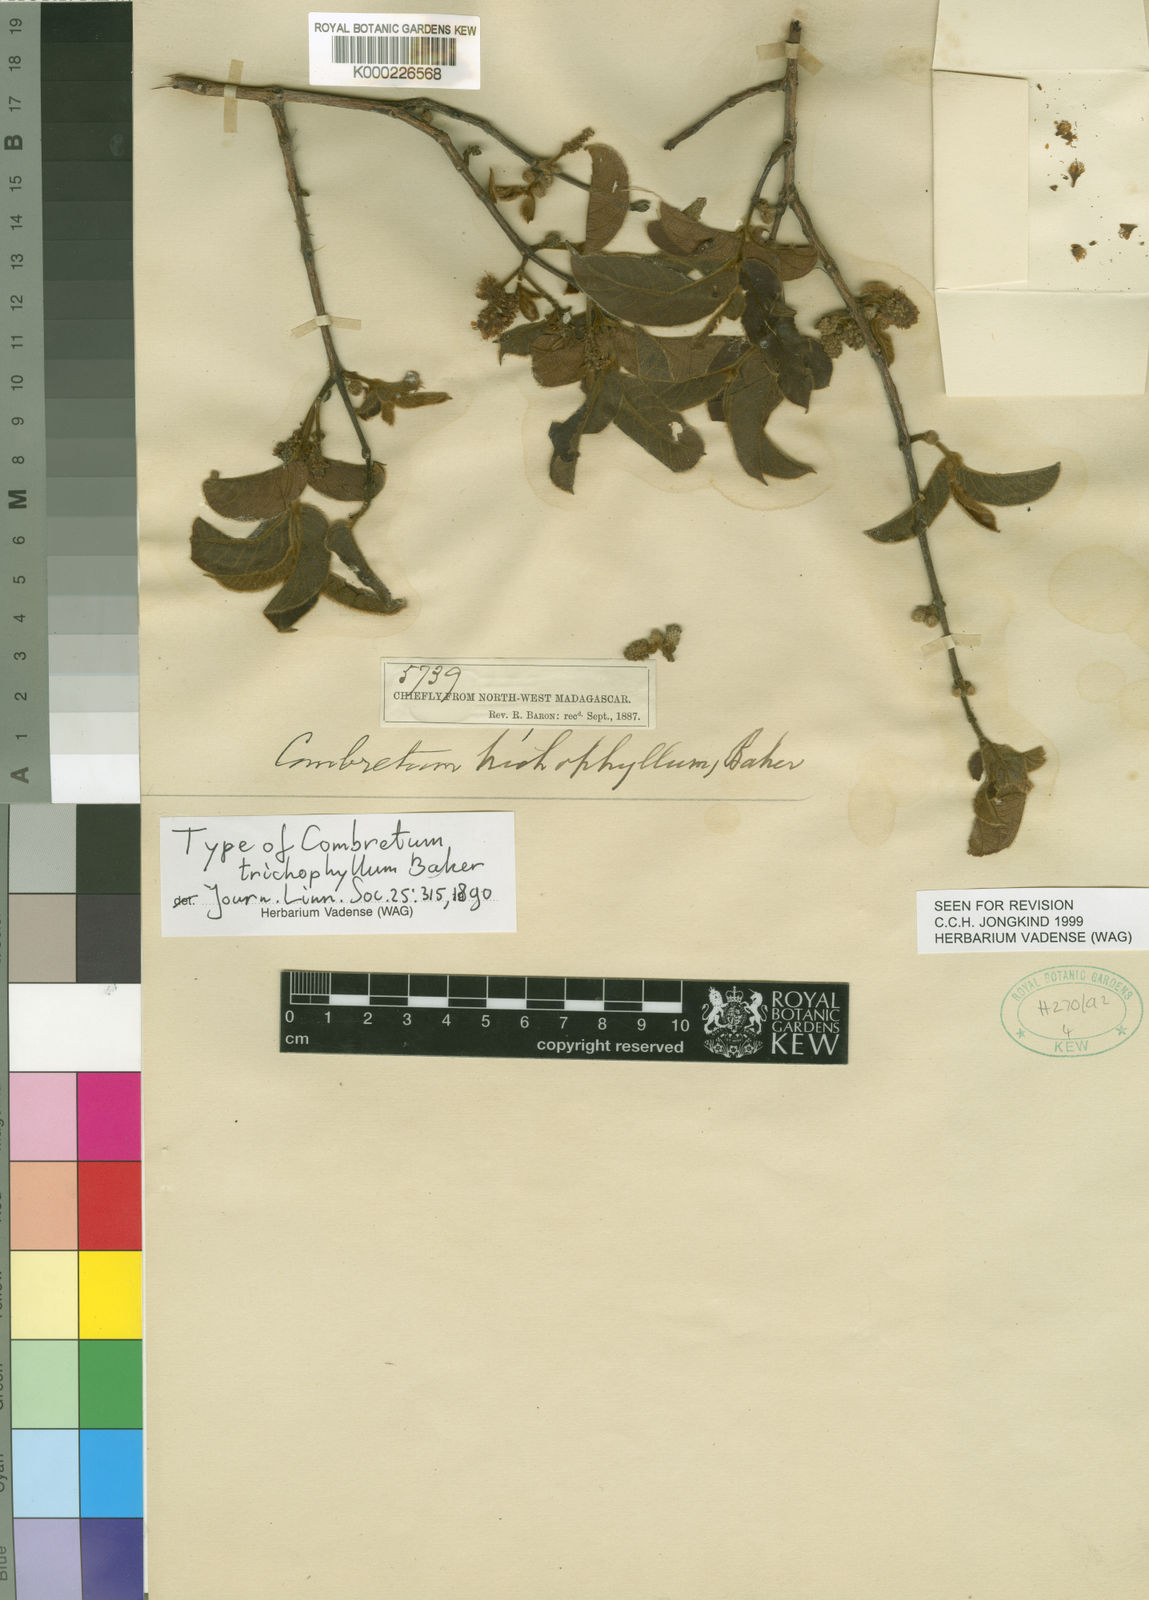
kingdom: Plantae
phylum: Tracheophyta
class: Magnoliopsida
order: Myrtales
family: Combretaceae
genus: Combretum
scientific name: Combretum trichophyllum
